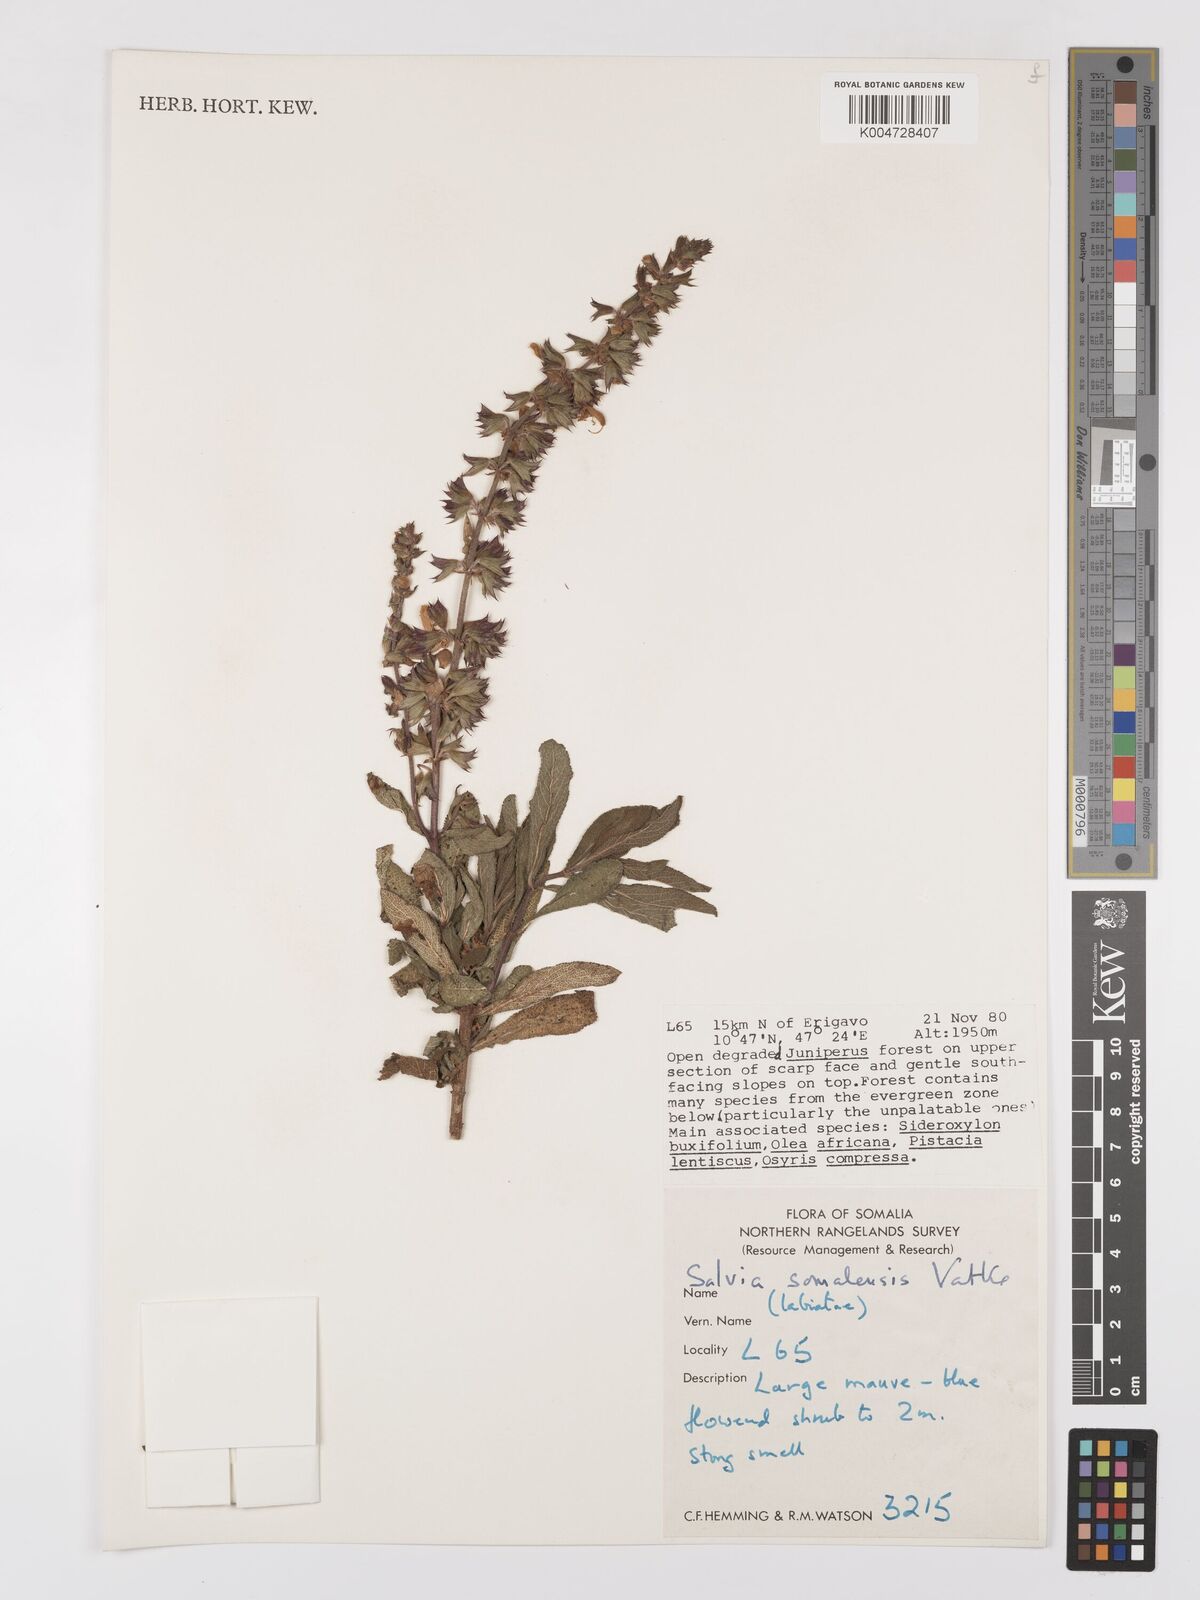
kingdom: Plantae
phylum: Tracheophyta
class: Magnoliopsida
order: Lamiales
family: Lamiaceae
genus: Salvia
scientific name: Salvia somalensis
